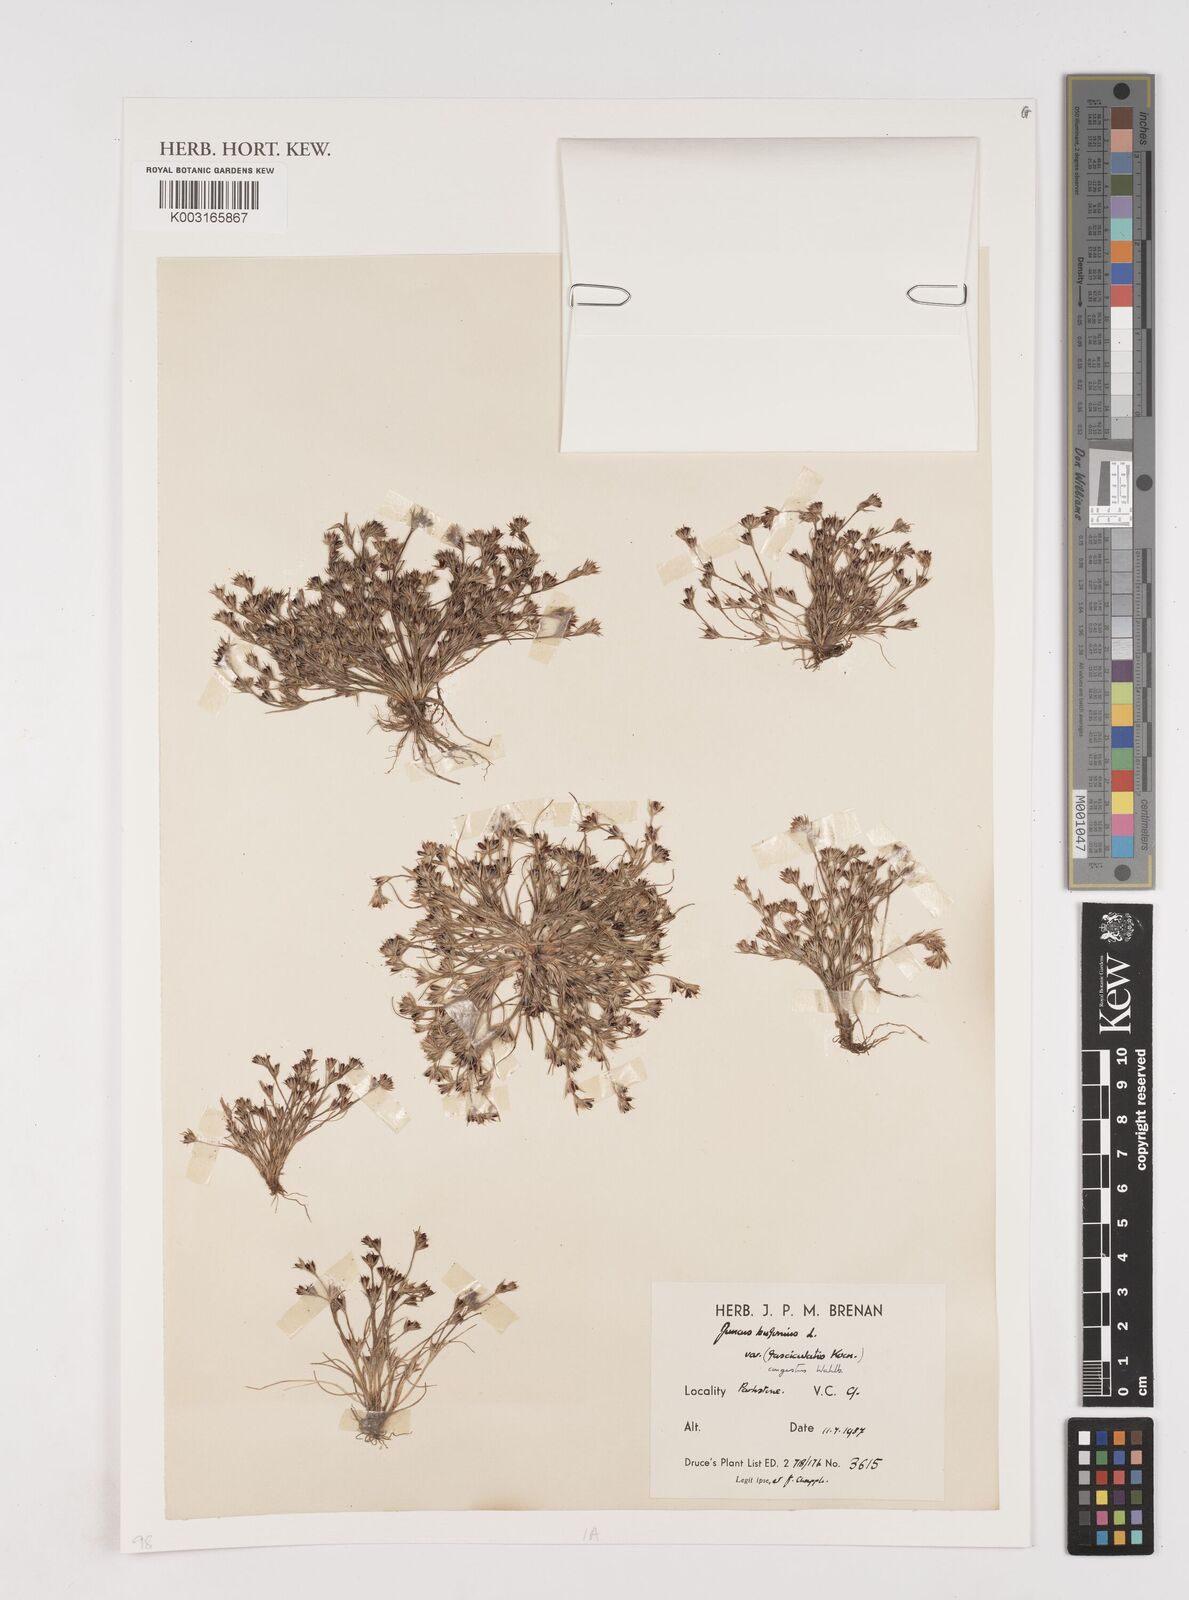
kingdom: Plantae
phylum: Tracheophyta
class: Liliopsida
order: Poales
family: Juncaceae
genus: Juncus
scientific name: Juncus bufonius
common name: Toad rush
